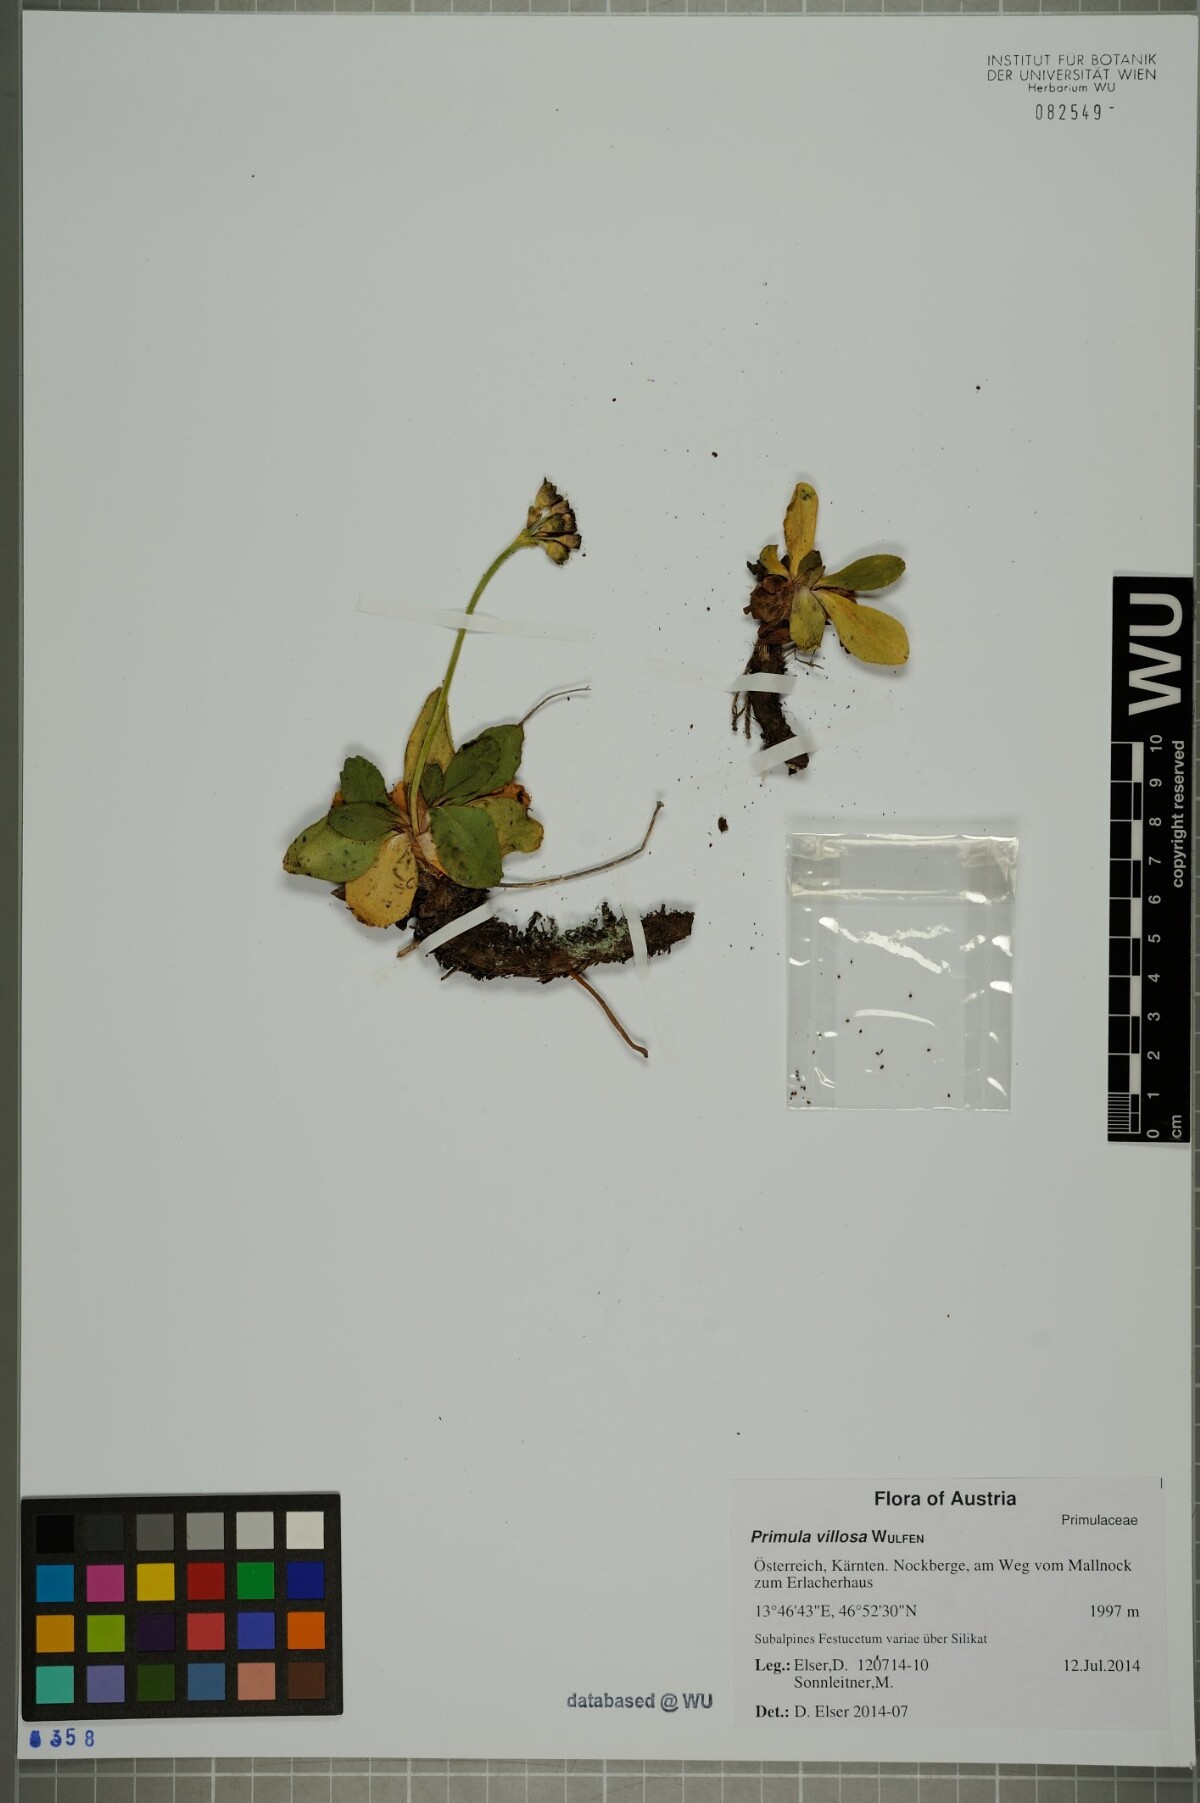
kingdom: Plantae
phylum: Tracheophyta
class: Magnoliopsida
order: Ericales
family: Primulaceae
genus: Primula
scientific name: Primula villosa
